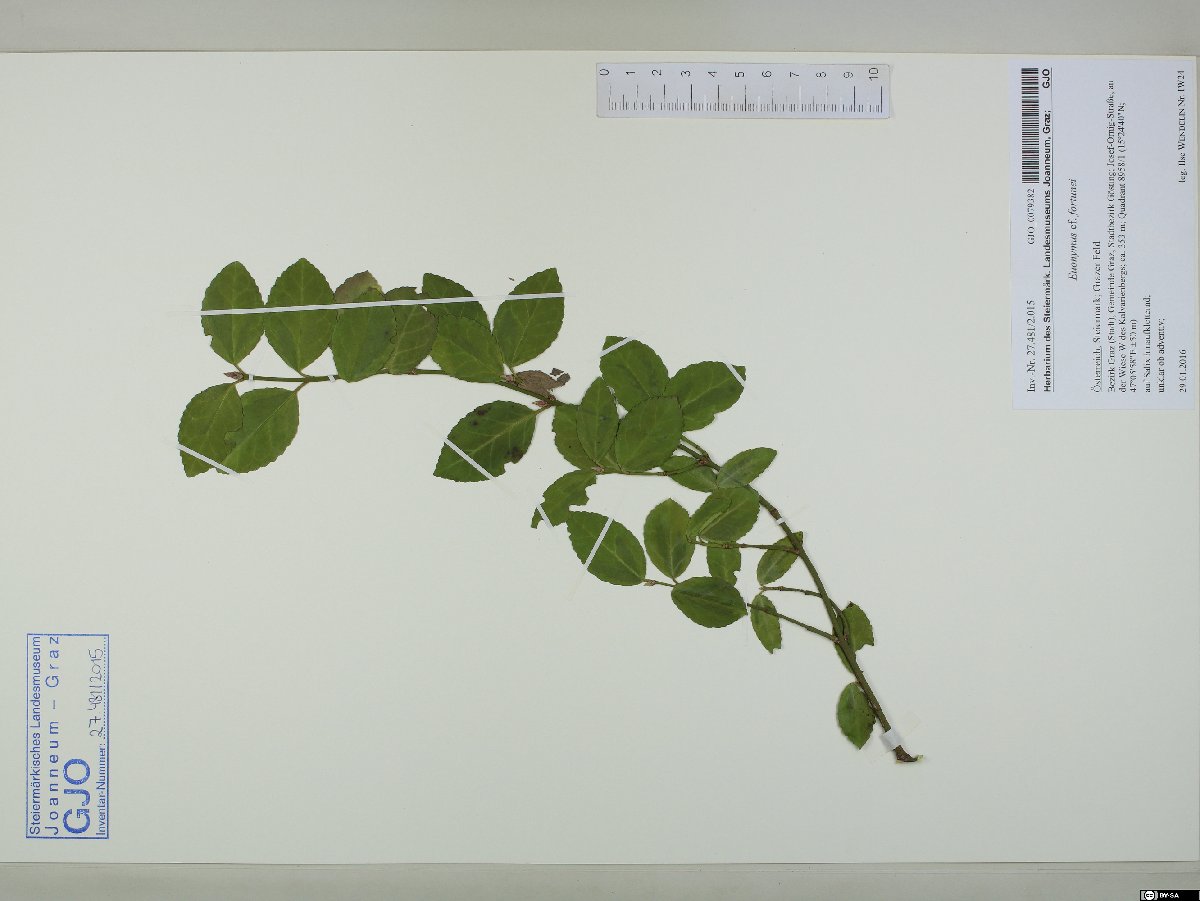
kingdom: Plantae
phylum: Tracheophyta
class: Magnoliopsida
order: Celastrales
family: Celastraceae
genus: Euonymus
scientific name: Euonymus fortunei
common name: Climbing euonymus
